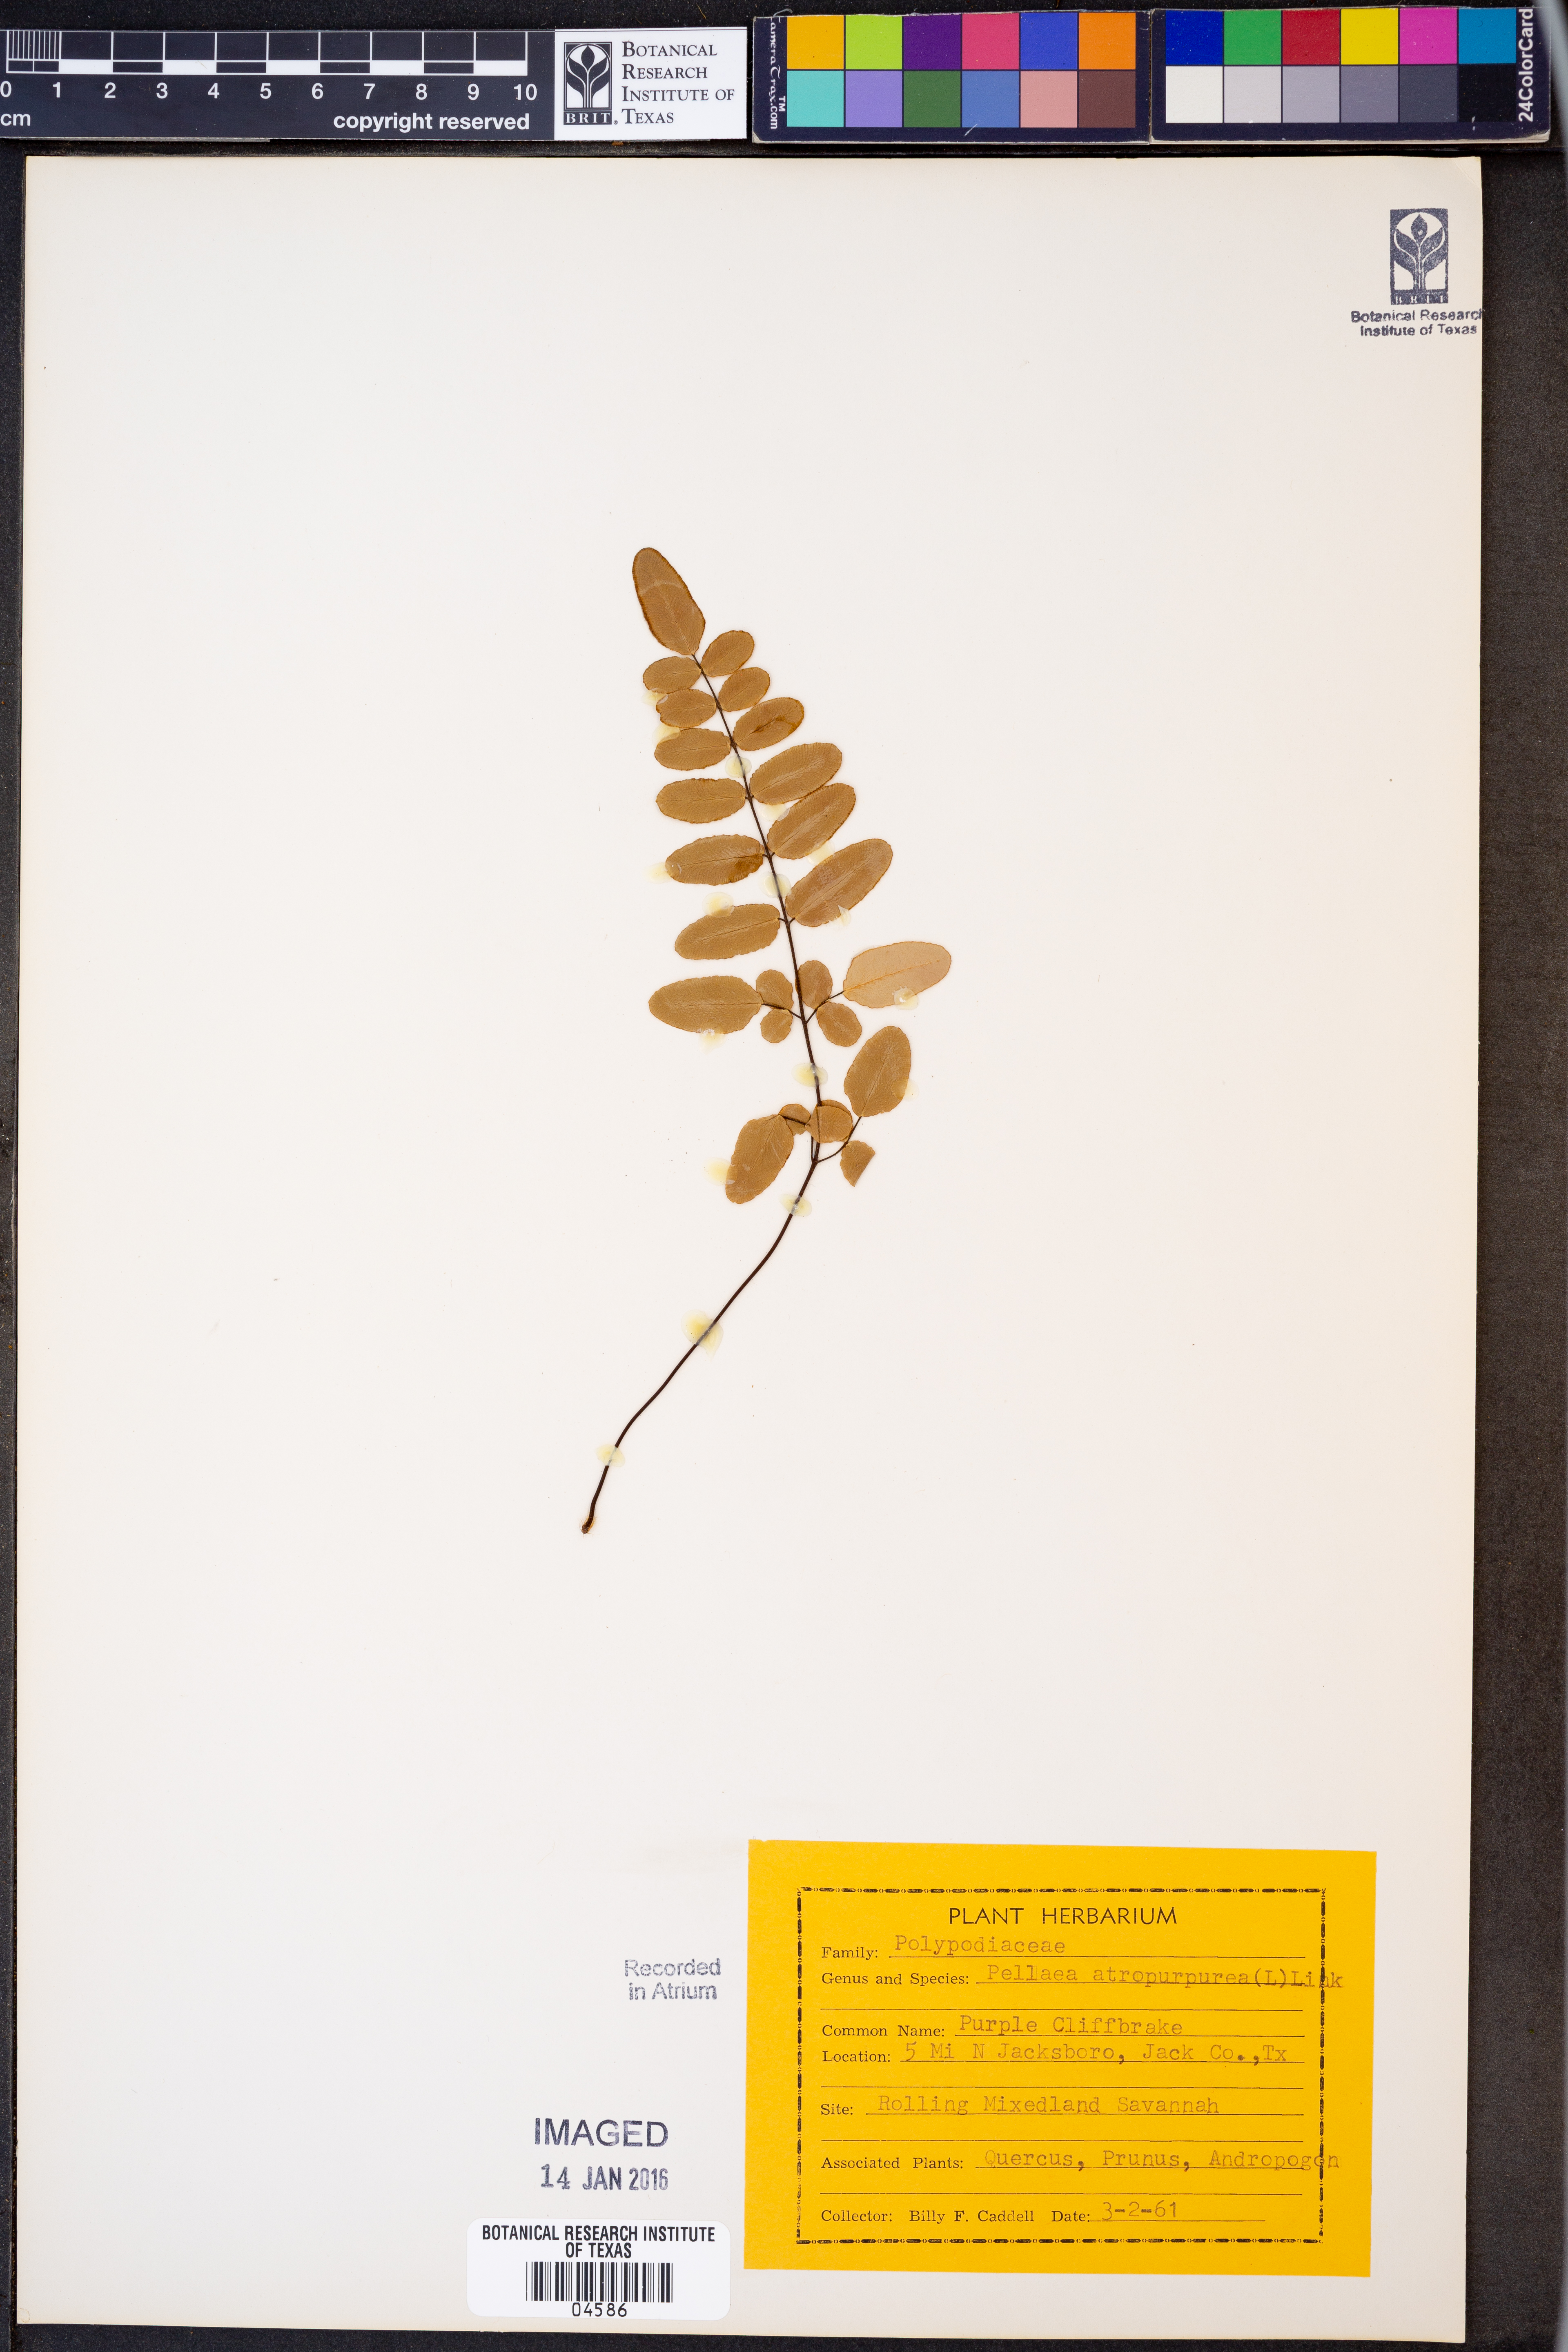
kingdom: Plantae
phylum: Tracheophyta
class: Polypodiopsida
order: Polypodiales
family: Pteridaceae
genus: Pellaea
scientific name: Pellaea atropurpurea
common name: Hairy cliffbrake
